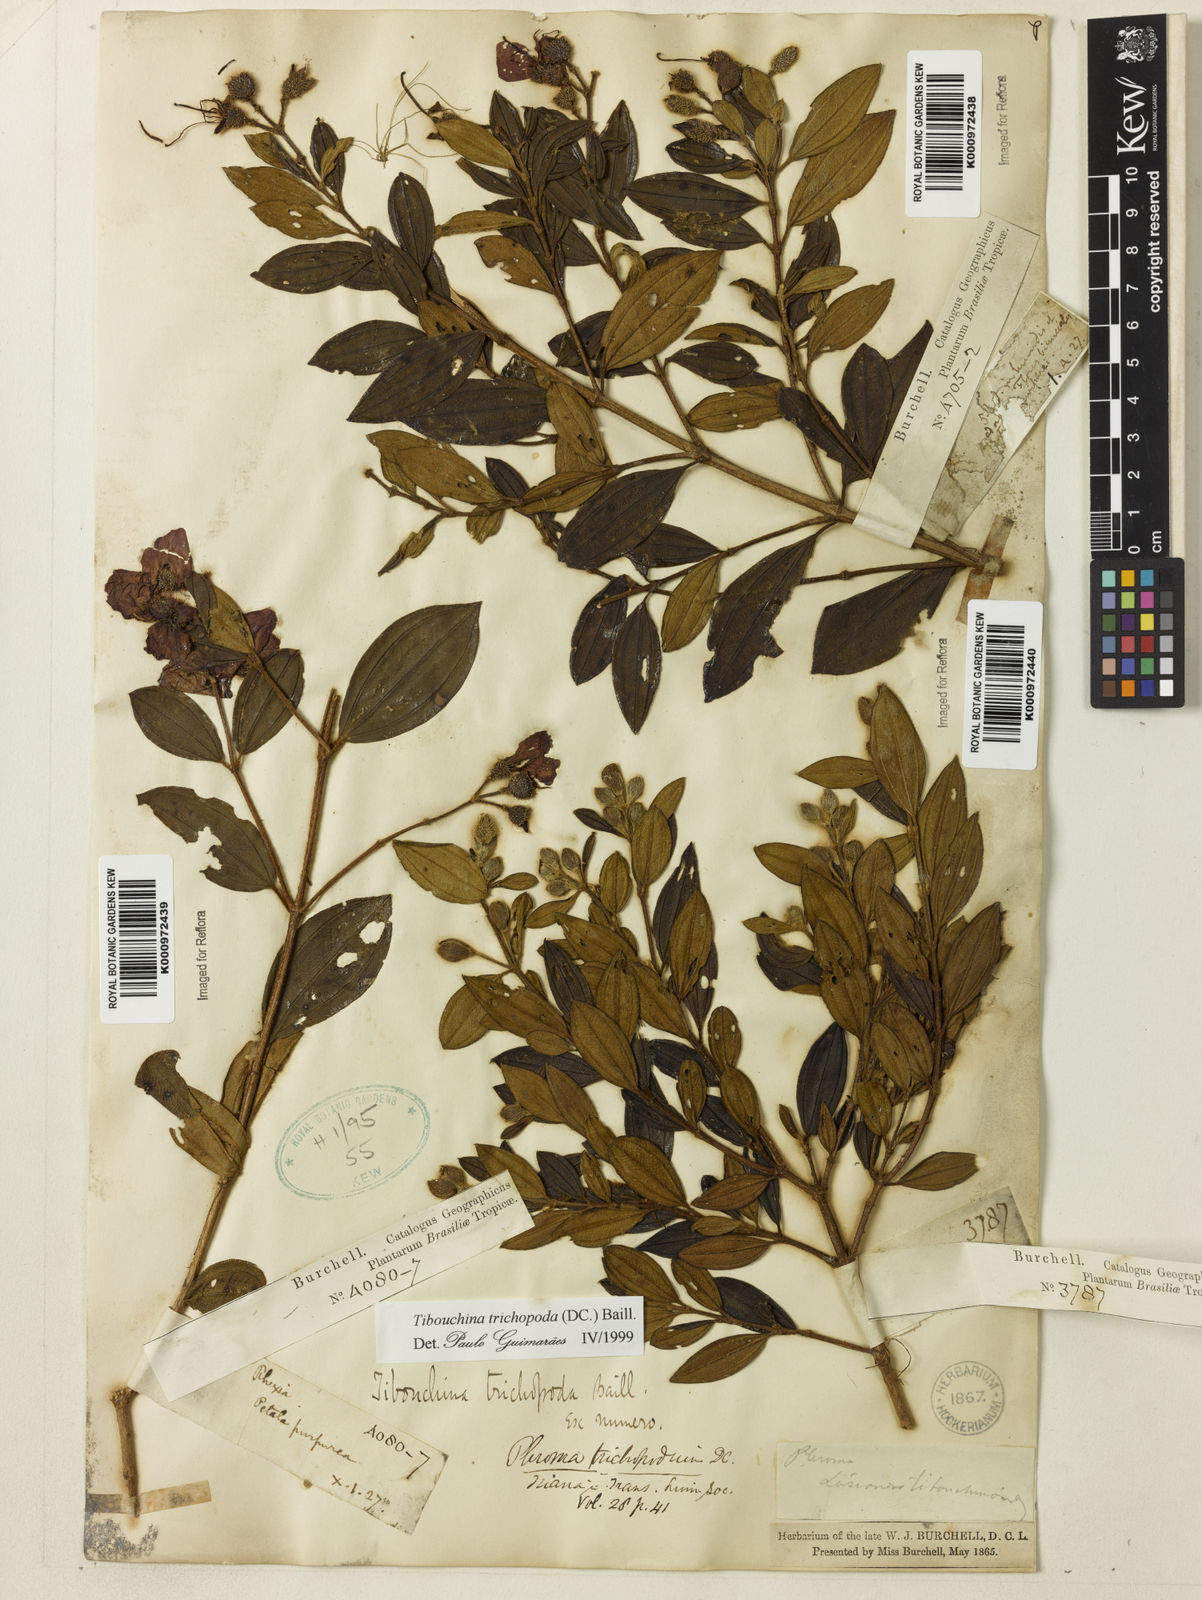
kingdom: Plantae
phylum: Tracheophyta
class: Magnoliopsida
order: Myrtales
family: Melastomataceae
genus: Pleroma
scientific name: Pleroma trichopodum
